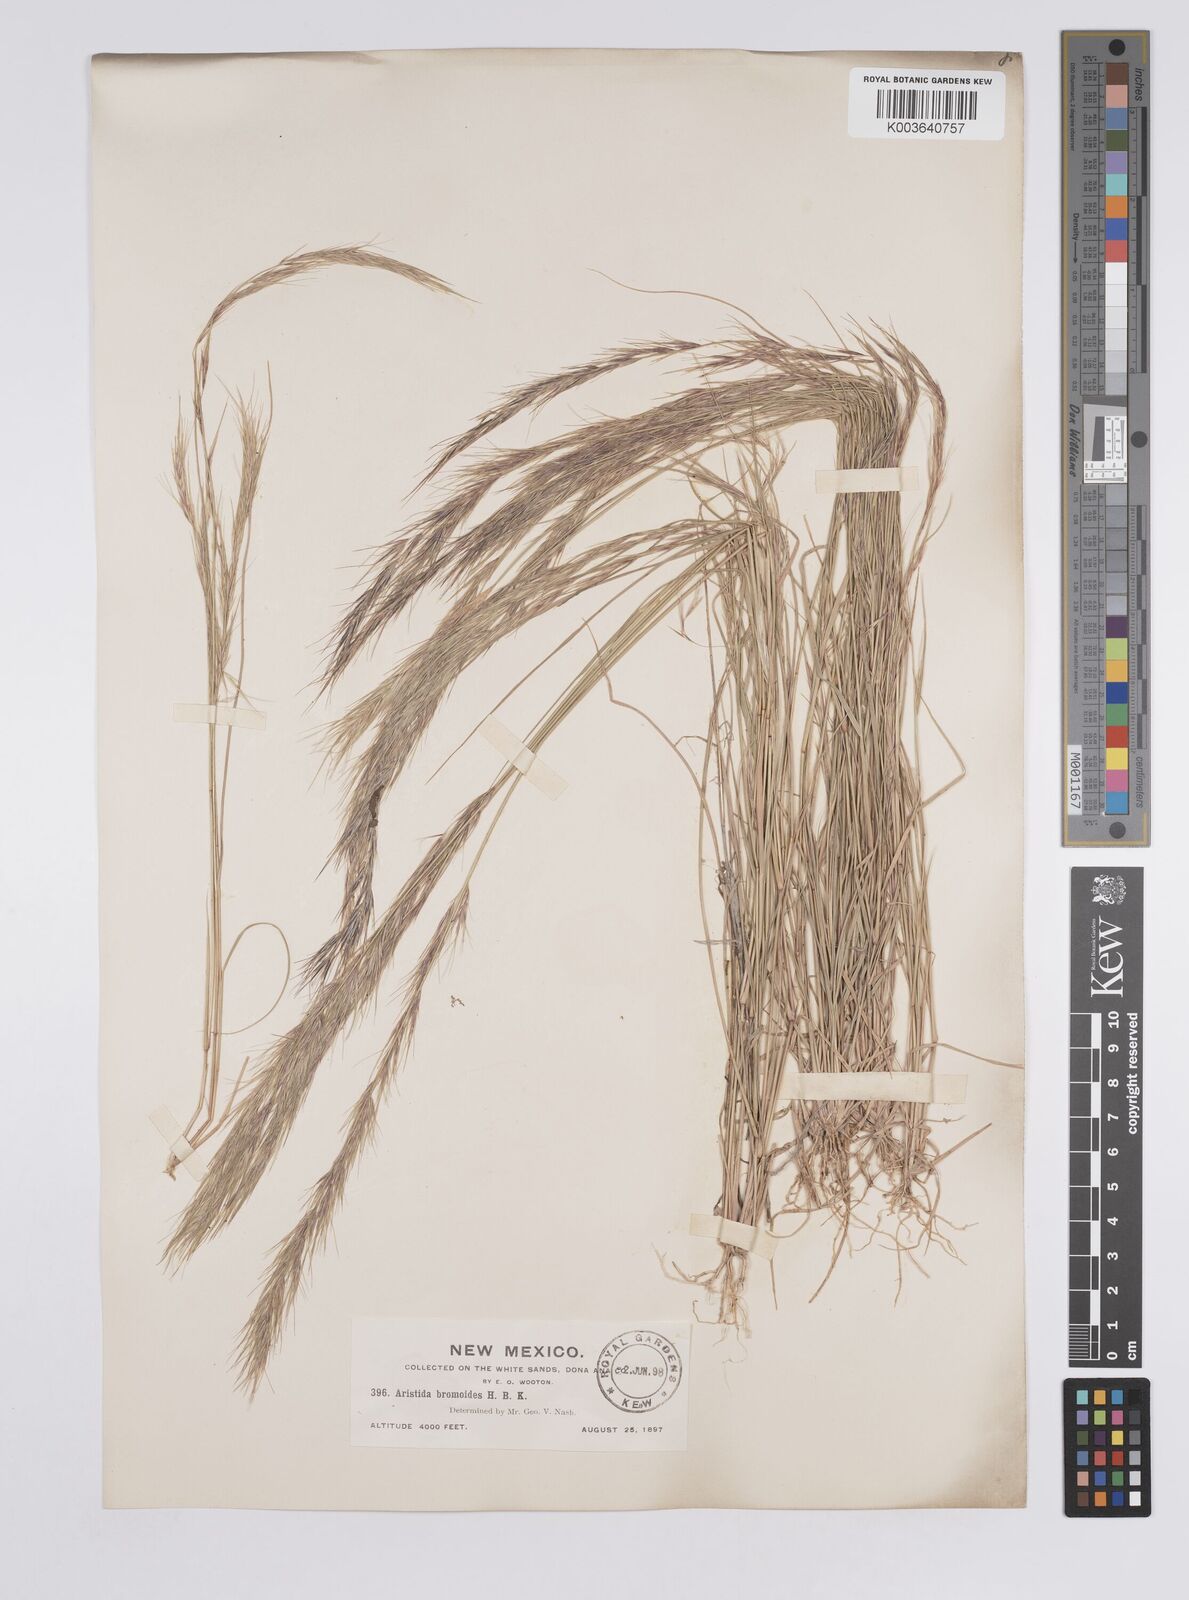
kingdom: Plantae
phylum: Tracheophyta
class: Liliopsida
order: Poales
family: Poaceae
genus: Aristida
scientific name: Aristida adscensionis
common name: Sixweeks threeawn
